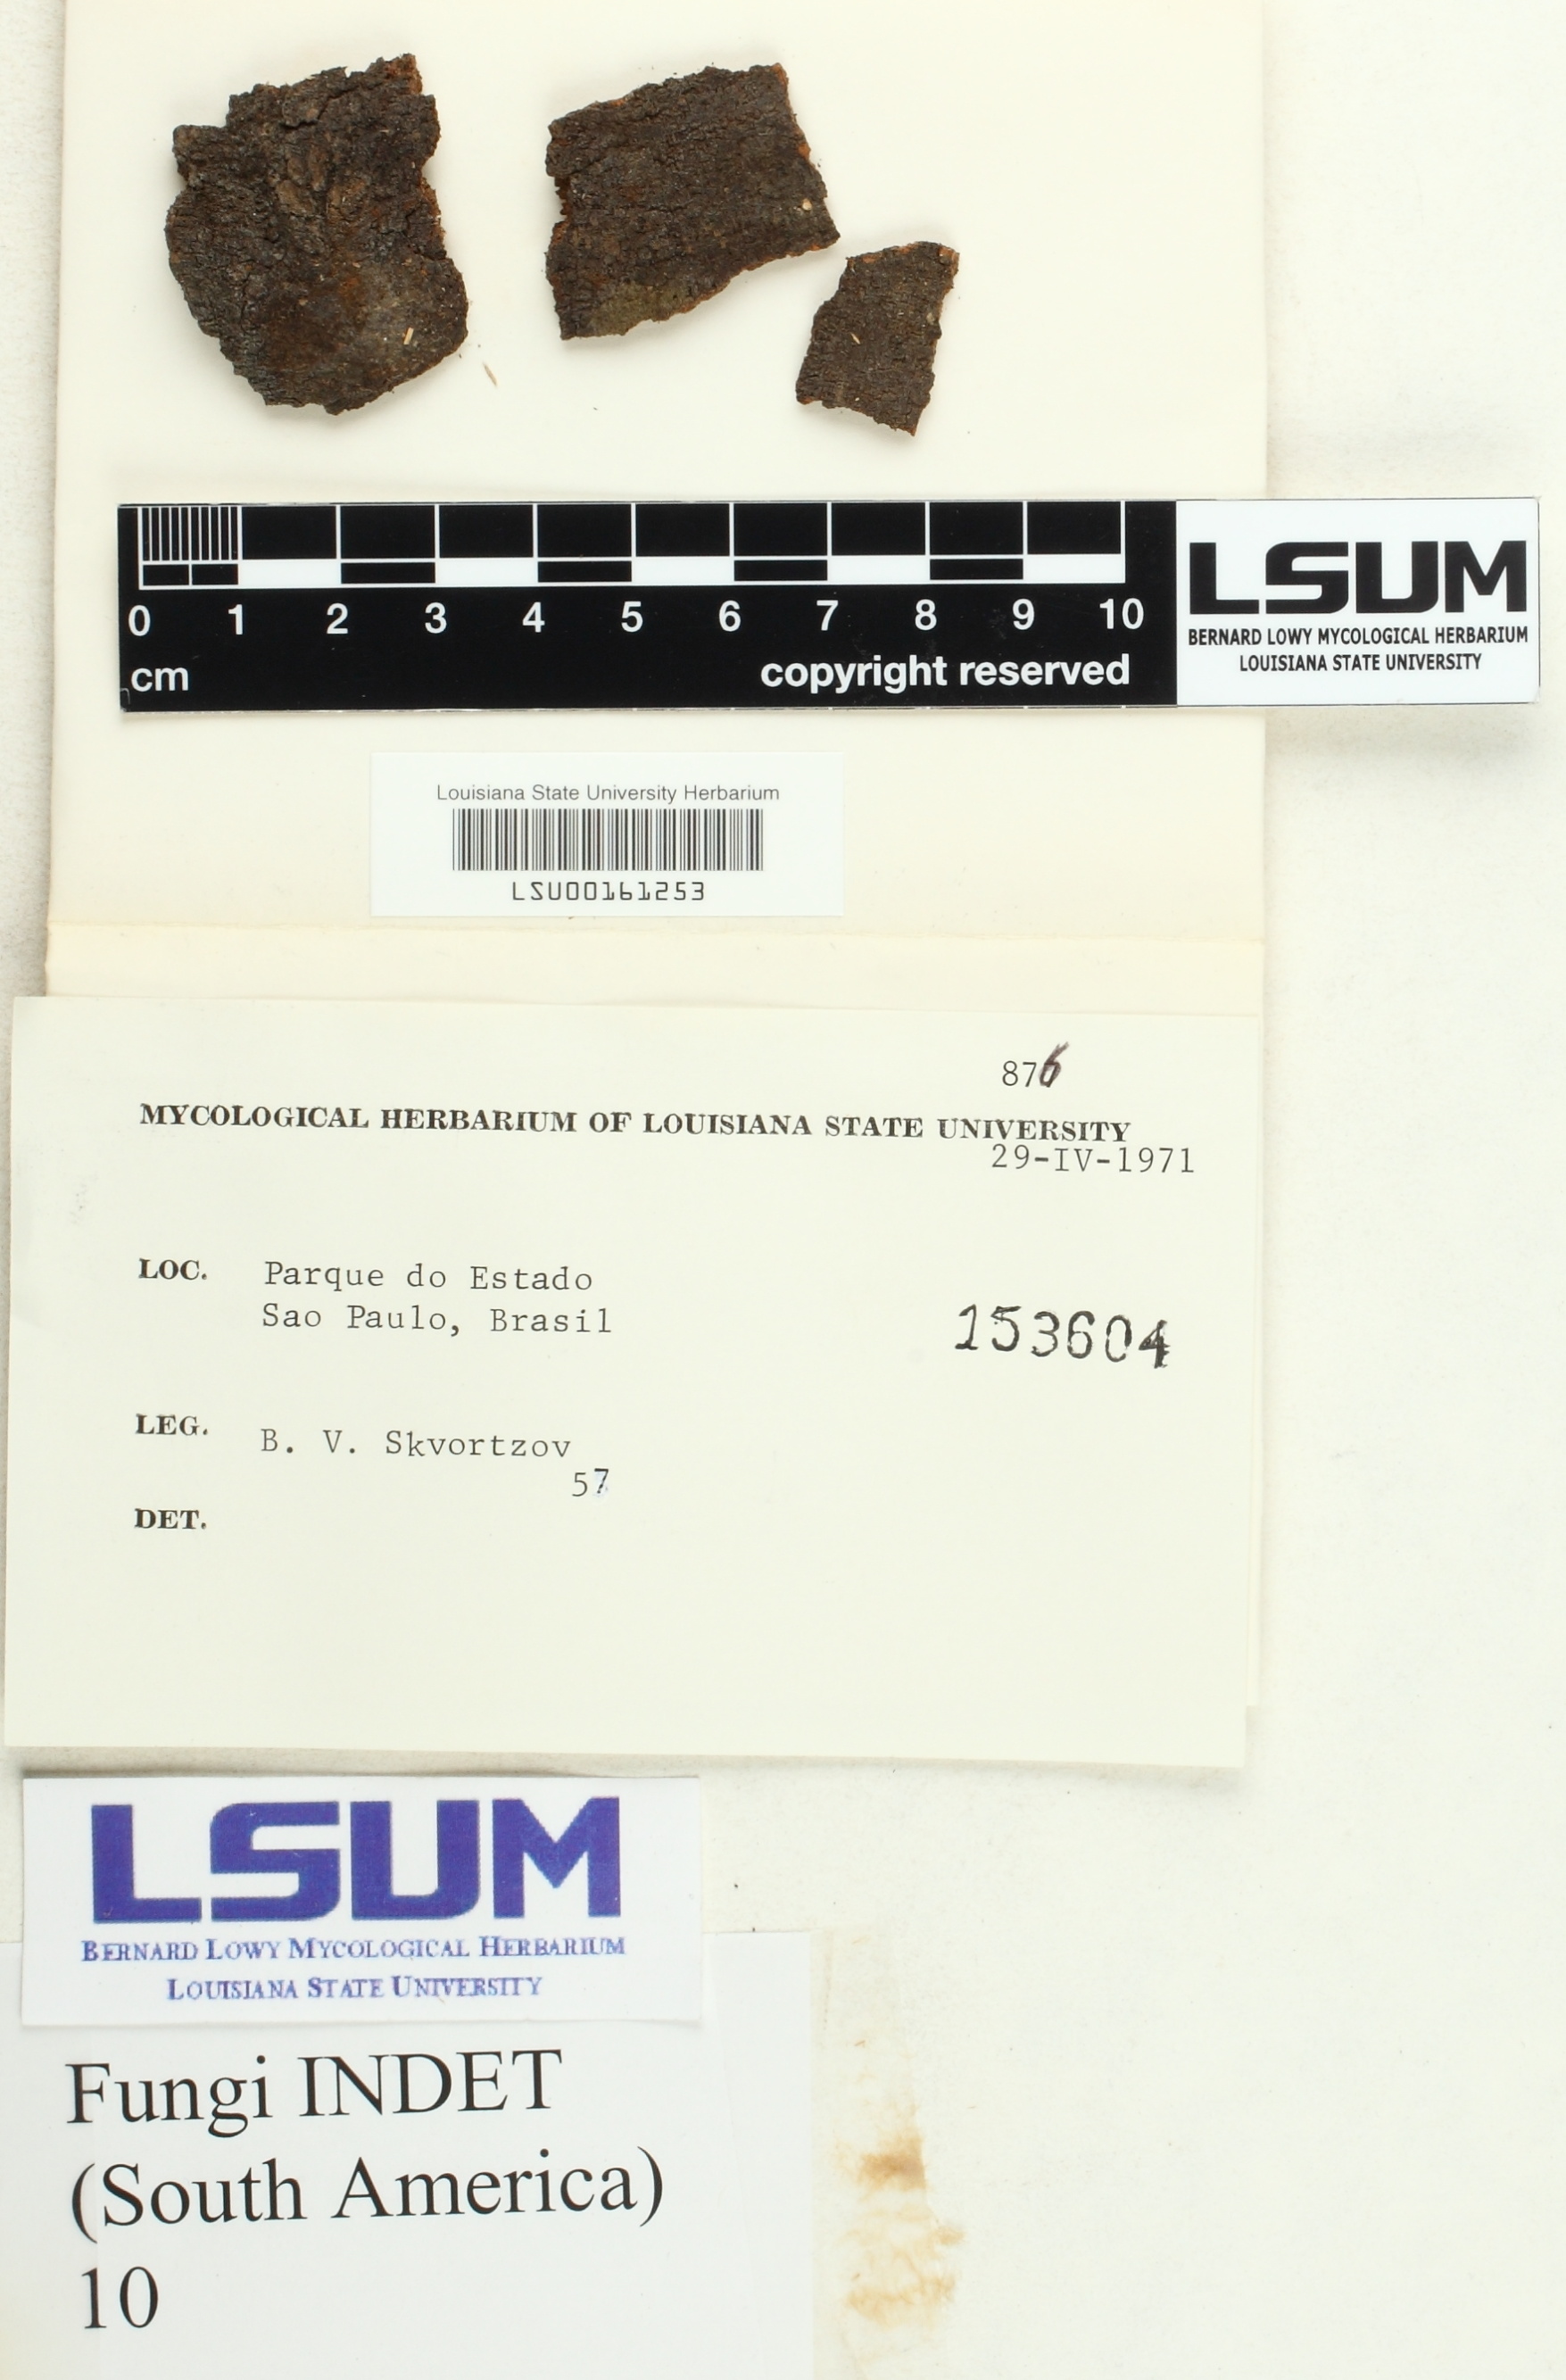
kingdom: Fungi
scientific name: Fungi
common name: Fungi
